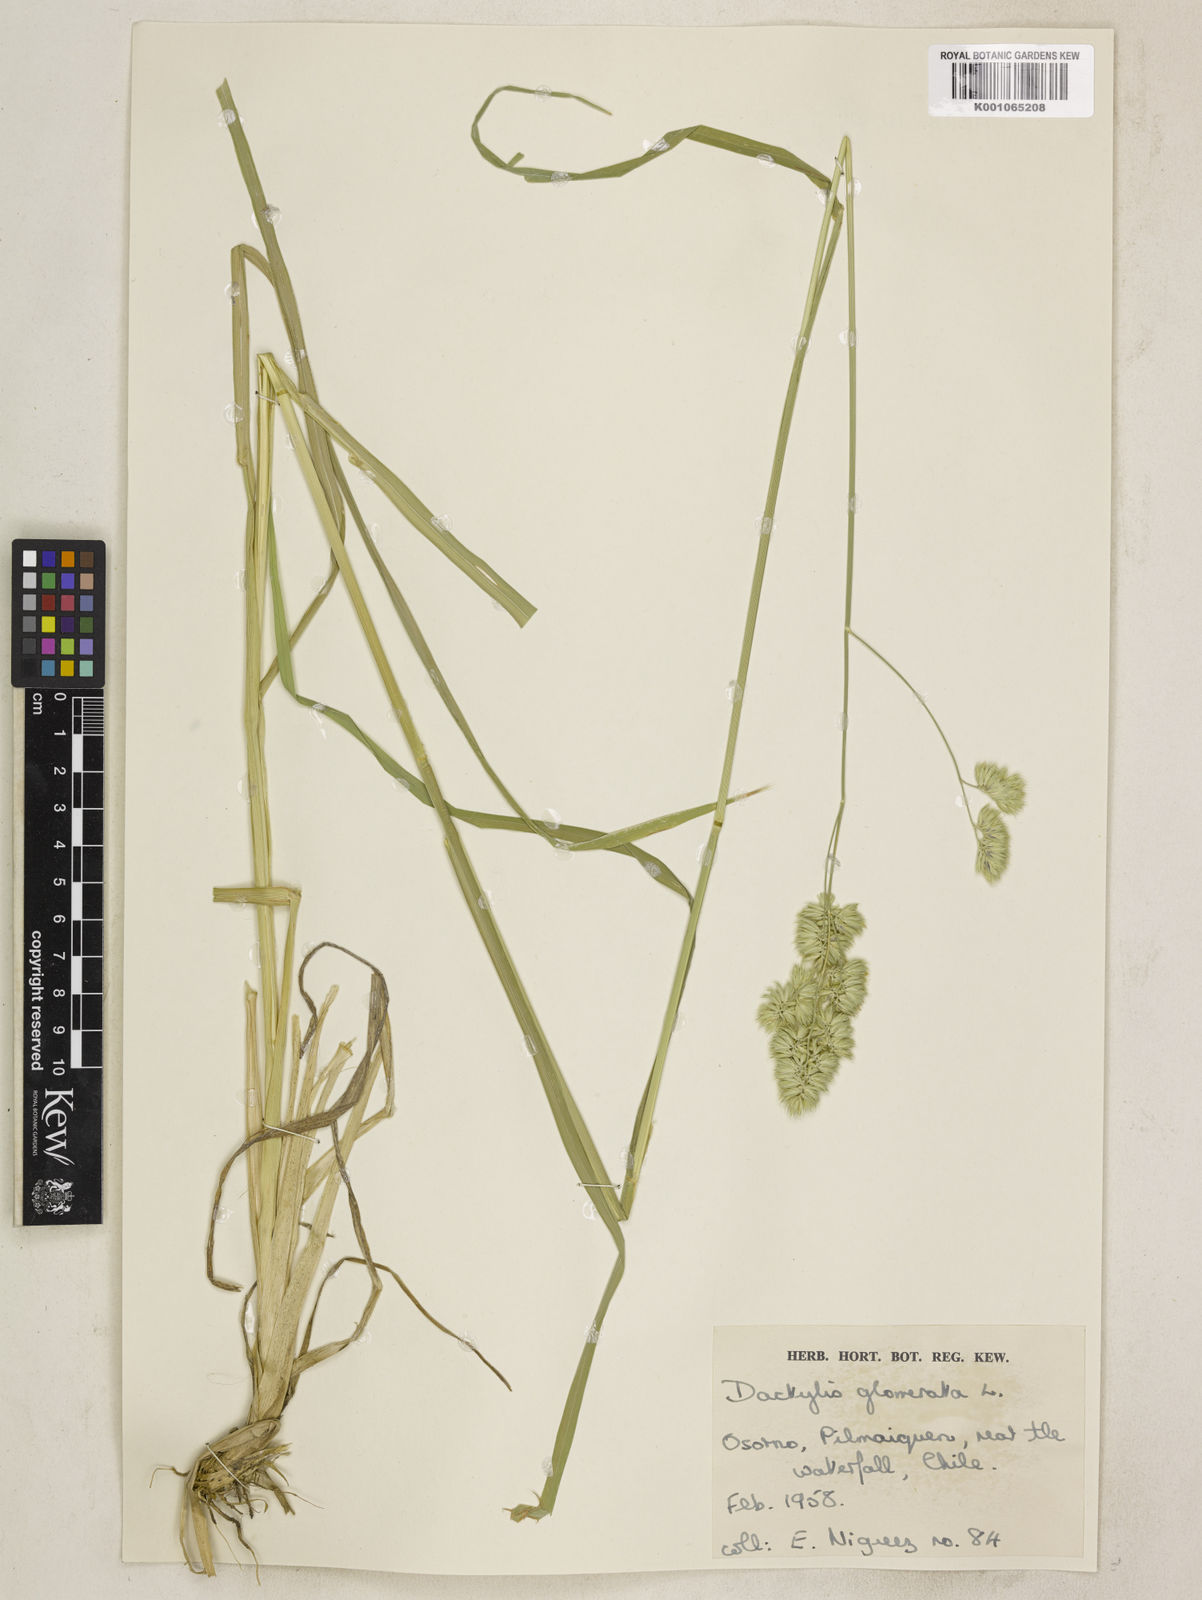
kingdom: Plantae
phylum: Tracheophyta
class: Liliopsida
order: Poales
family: Poaceae
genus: Dactylis
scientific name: Dactylis glomerata
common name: Orchardgrass
